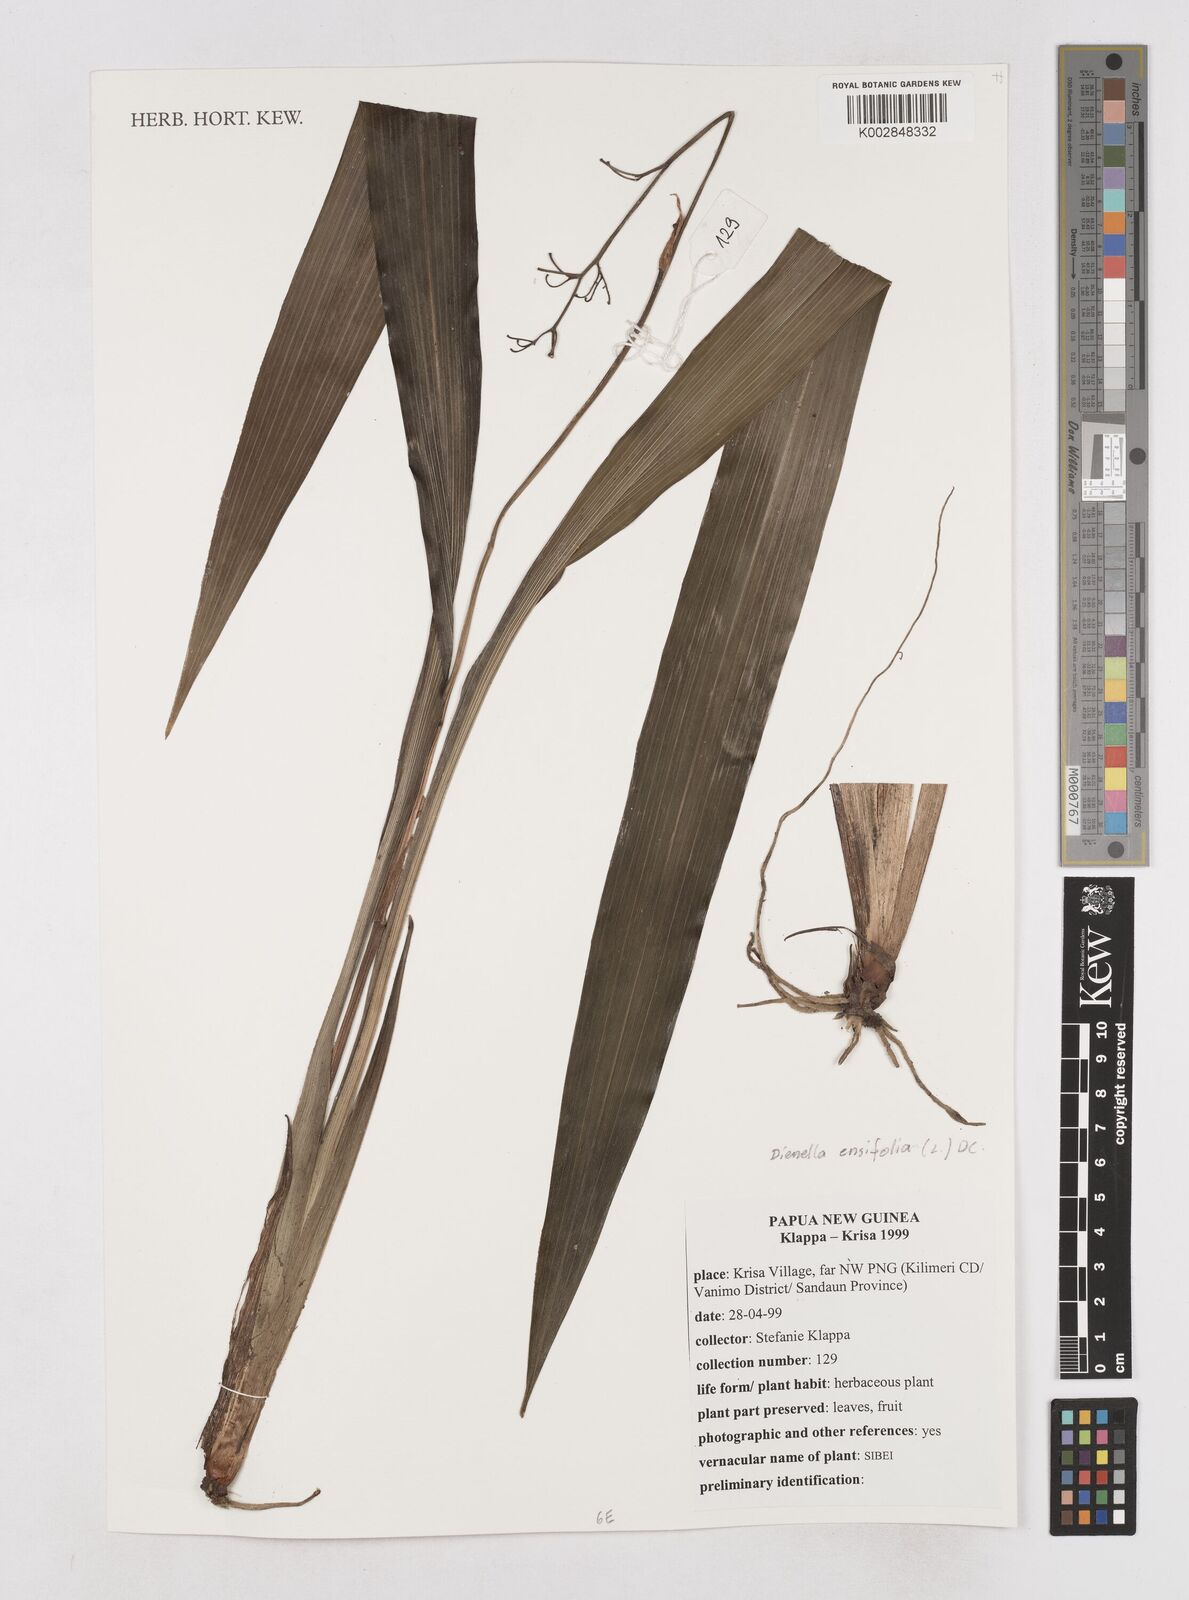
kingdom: Plantae
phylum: Tracheophyta
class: Liliopsida
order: Asparagales
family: Asphodelaceae
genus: Dianella
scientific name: Dianella ensifolia
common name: New zealand lilyplant
